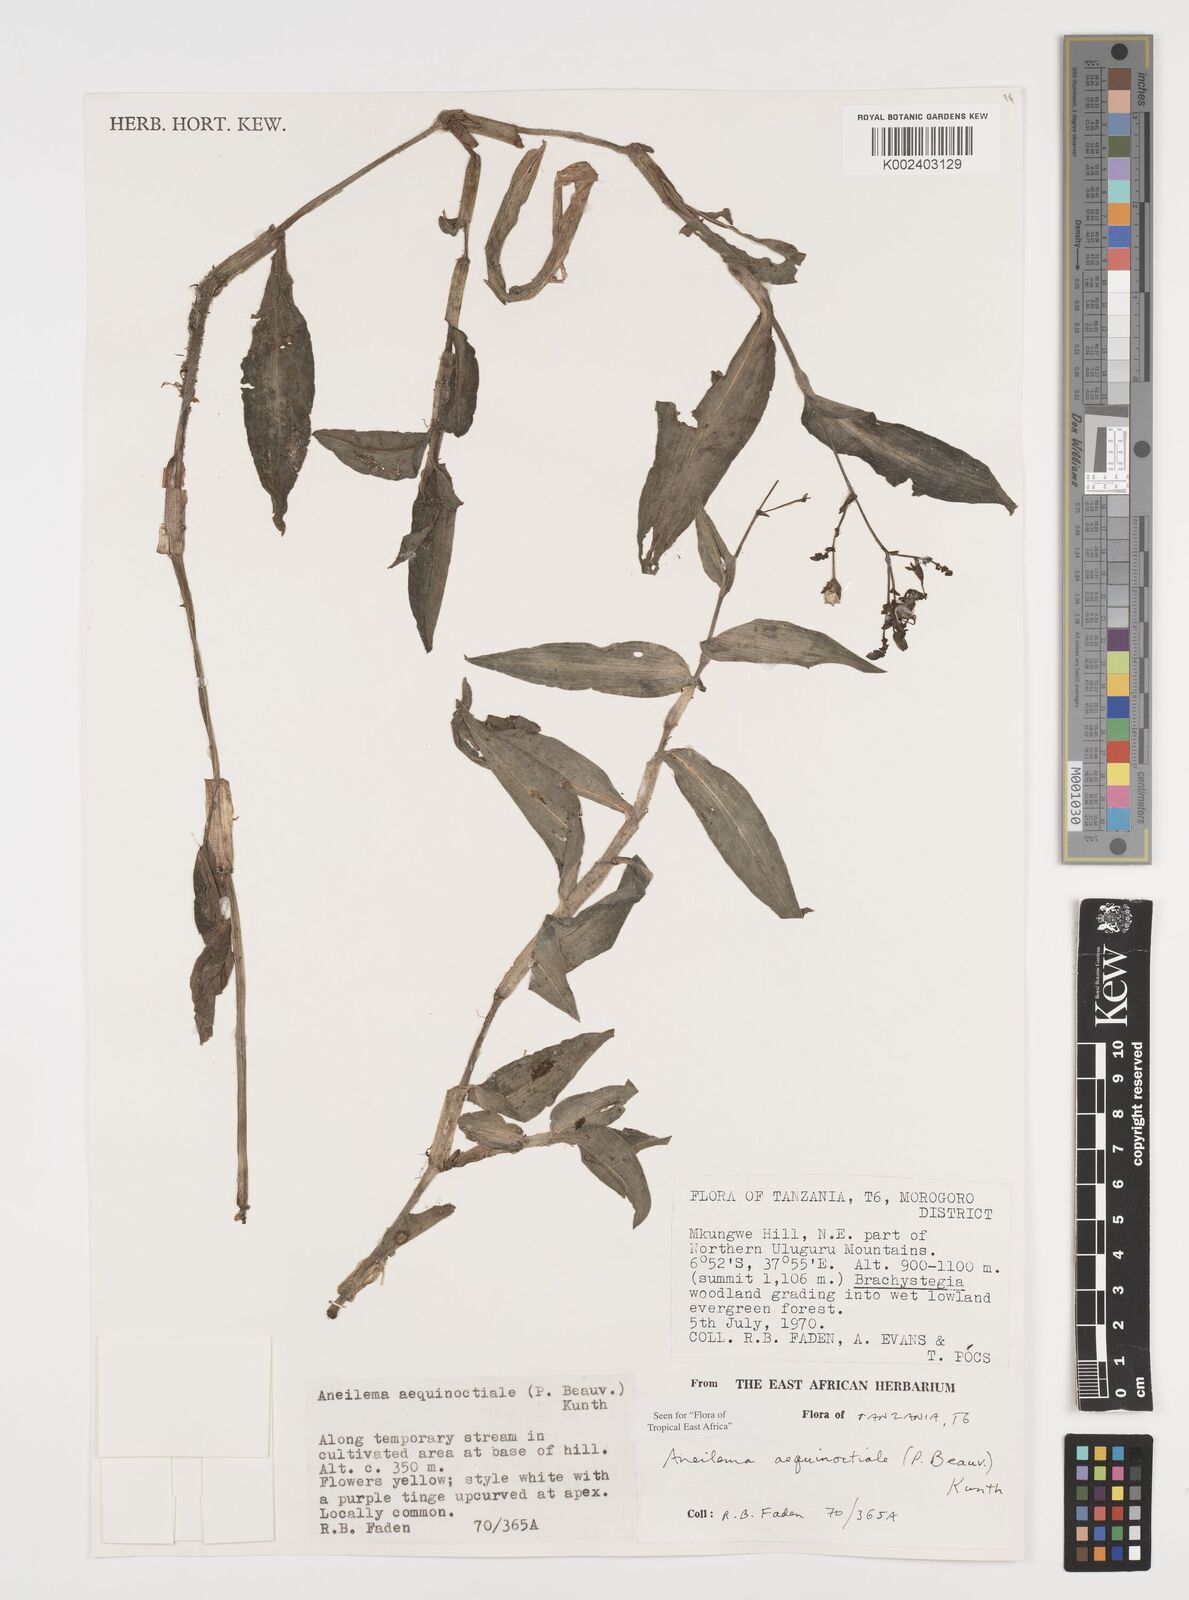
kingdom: Plantae
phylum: Tracheophyta
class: Liliopsida
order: Commelinales
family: Commelinaceae
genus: Aneilema
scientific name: Aneilema aequinoctiale
